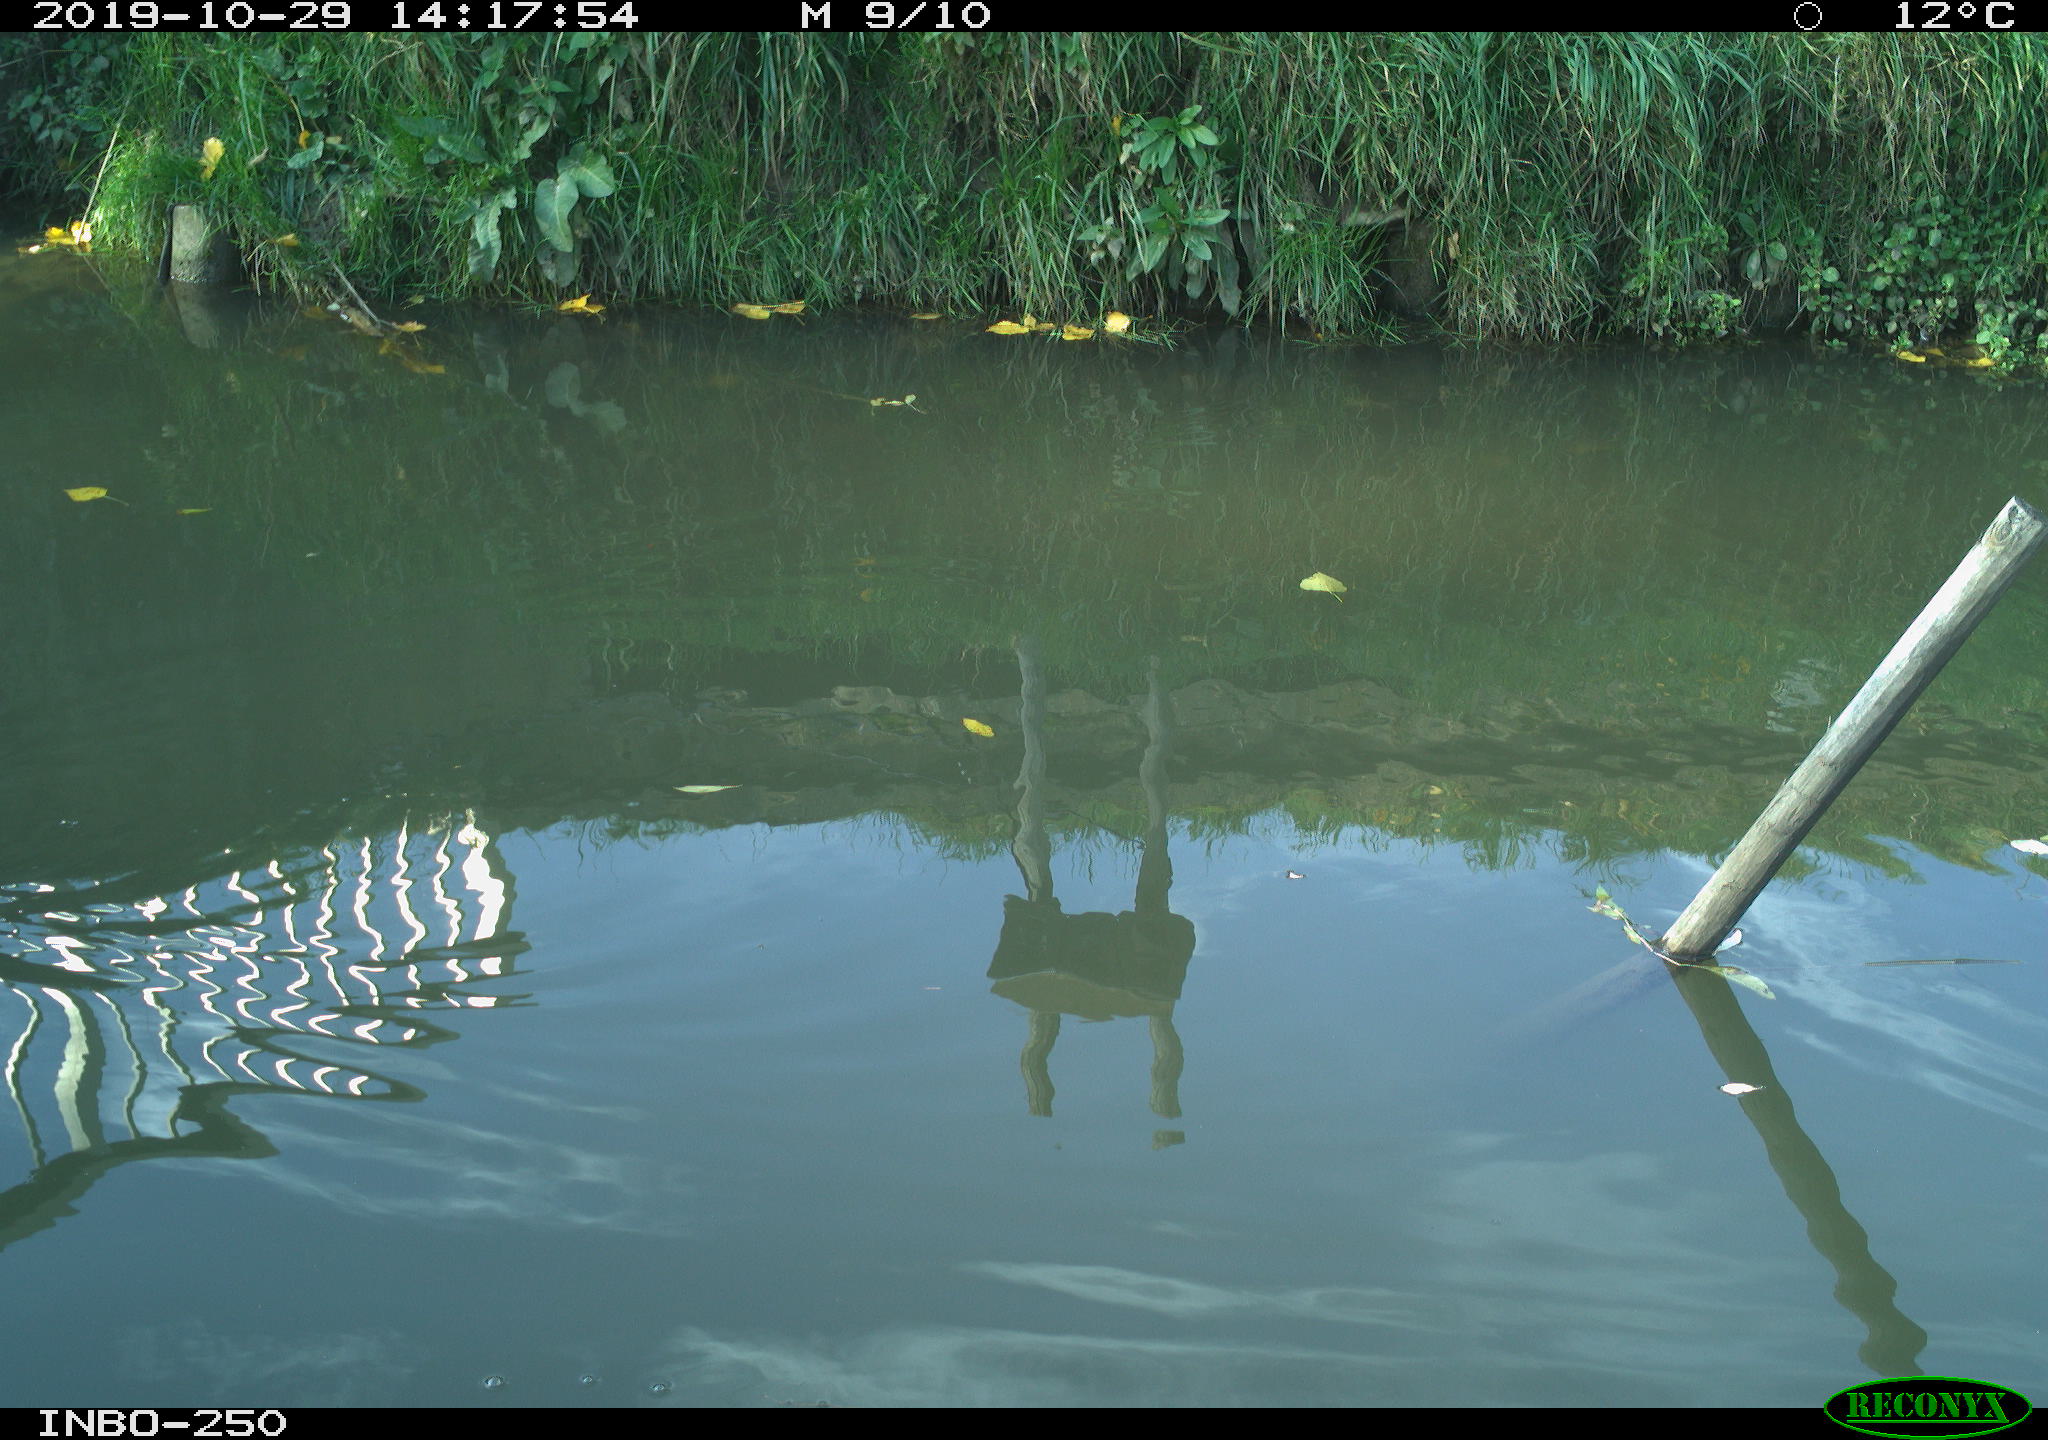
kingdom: Animalia
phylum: Chordata
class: Aves
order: Gruiformes
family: Rallidae
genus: Gallinula
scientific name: Gallinula chloropus
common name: Common moorhen
